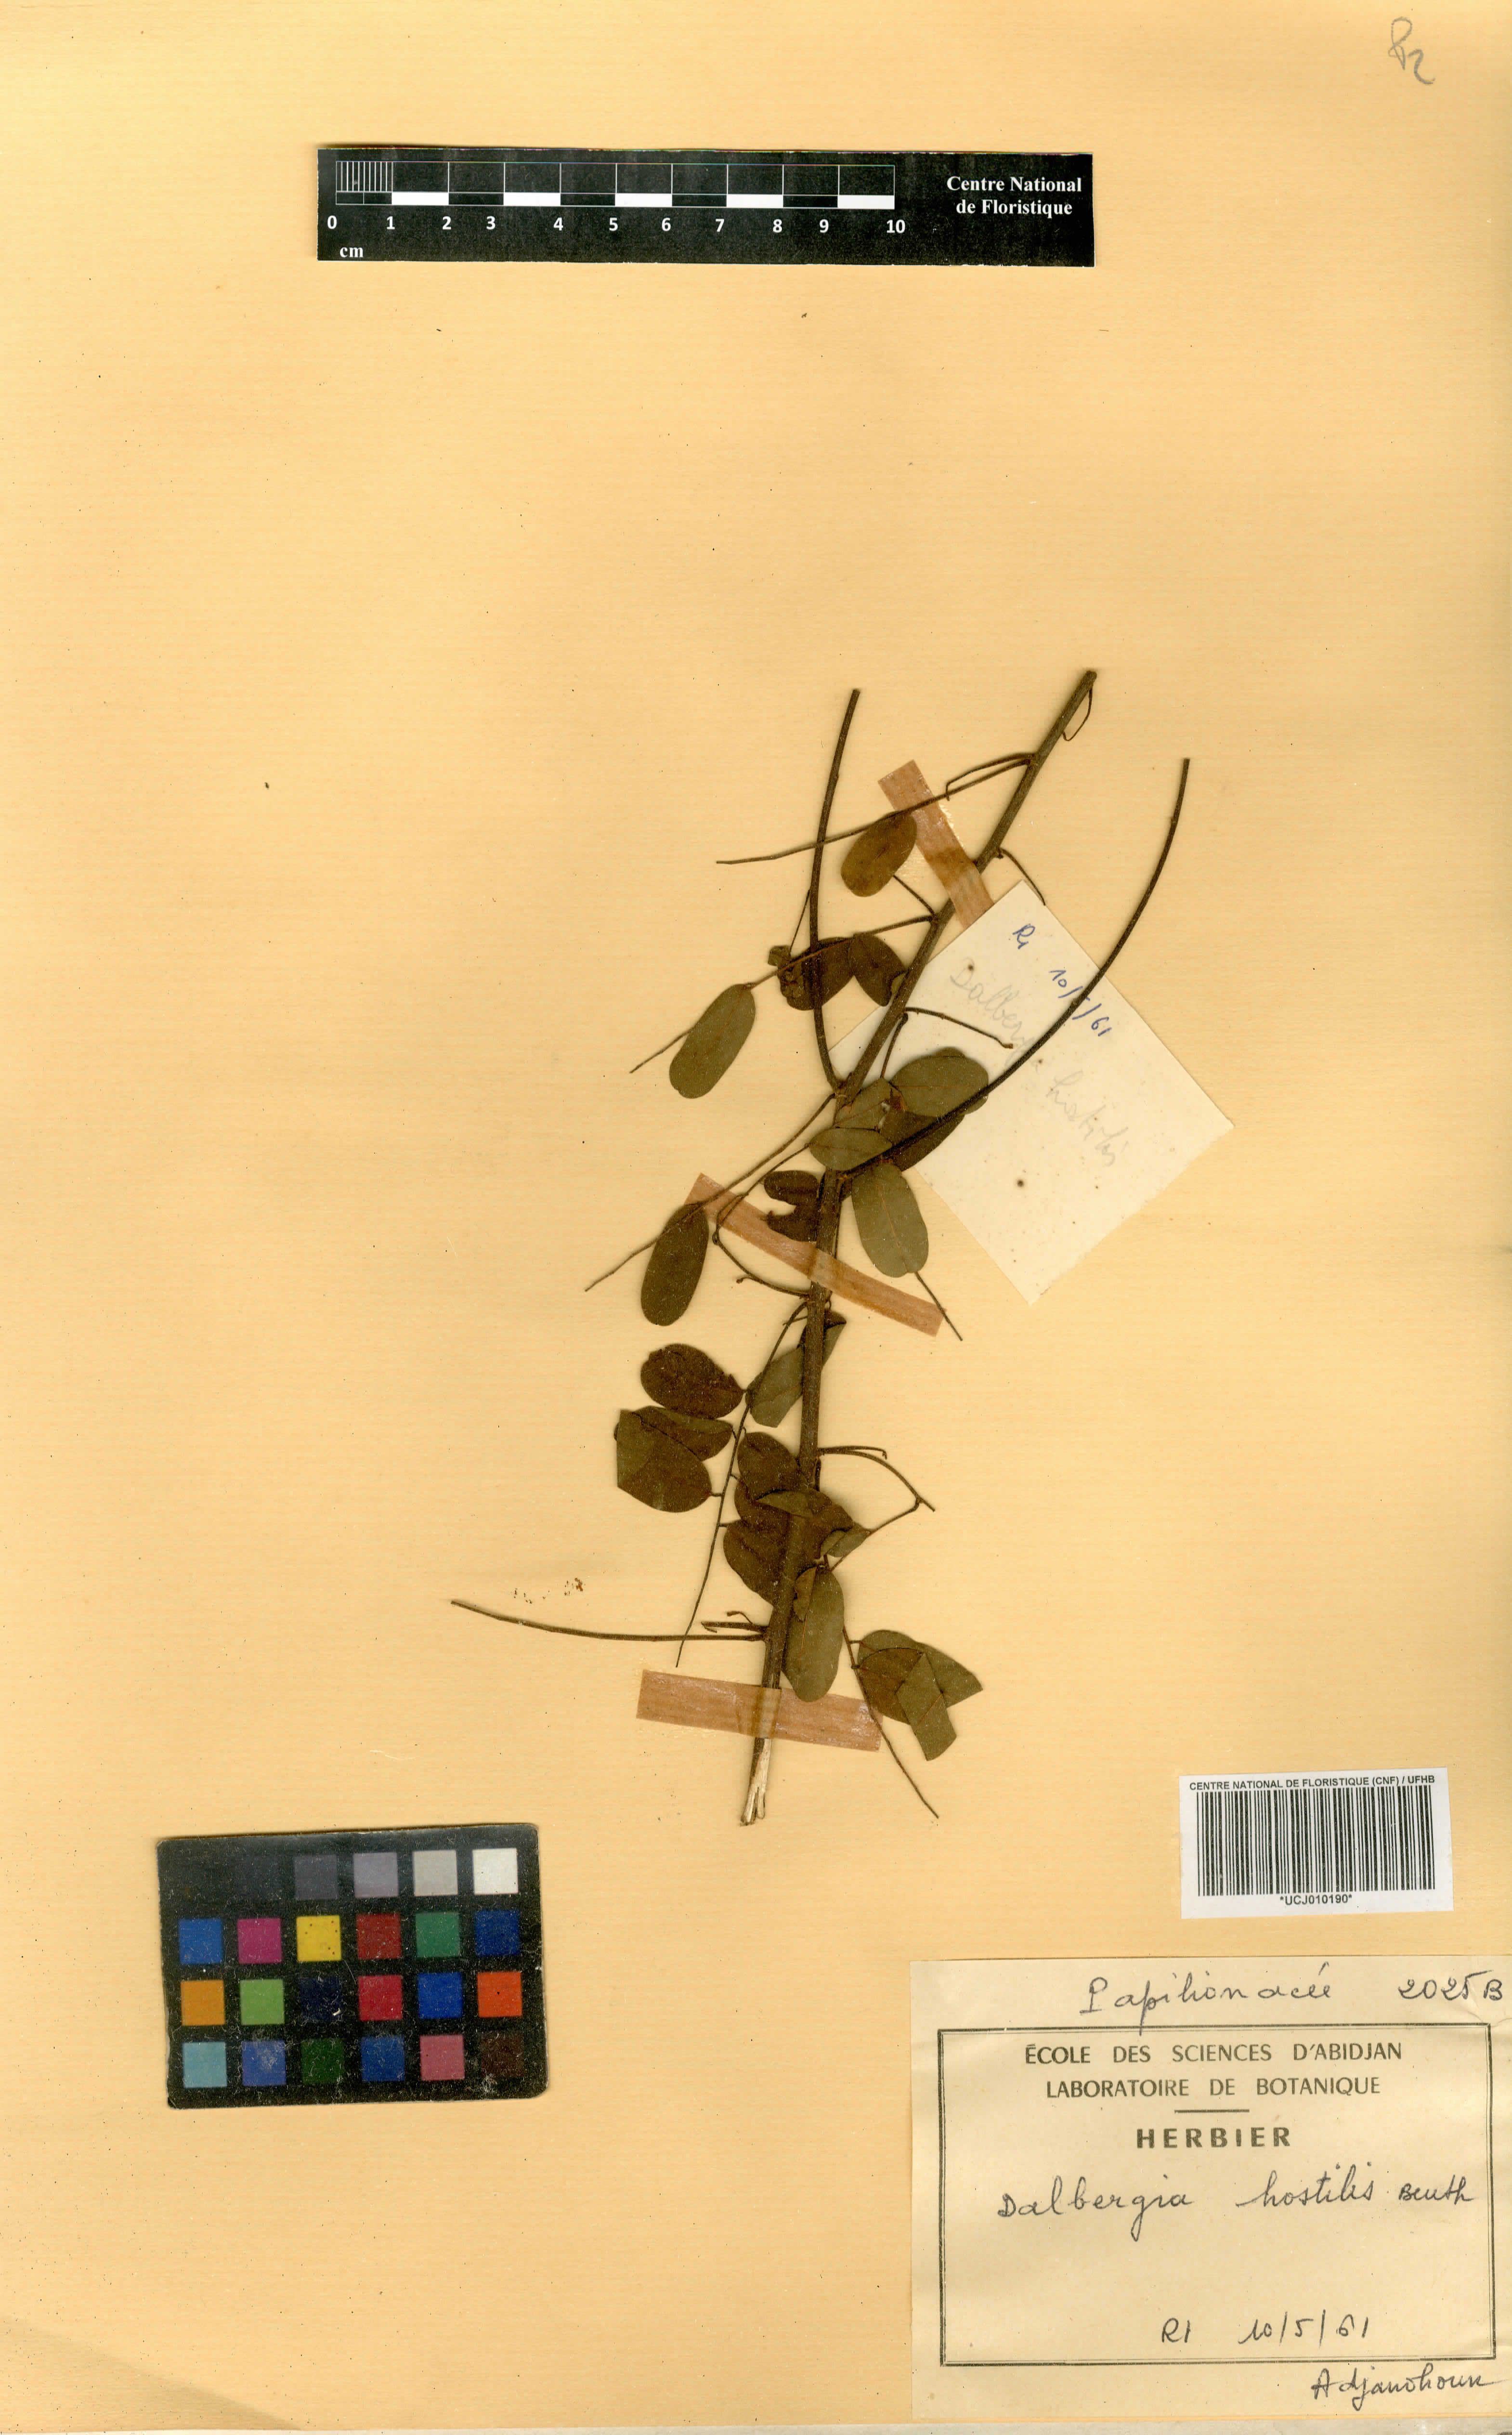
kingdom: Plantae
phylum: Tracheophyta
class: Magnoliopsida
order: Fabales
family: Fabaceae
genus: Dalbergia
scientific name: Dalbergia hostilis
